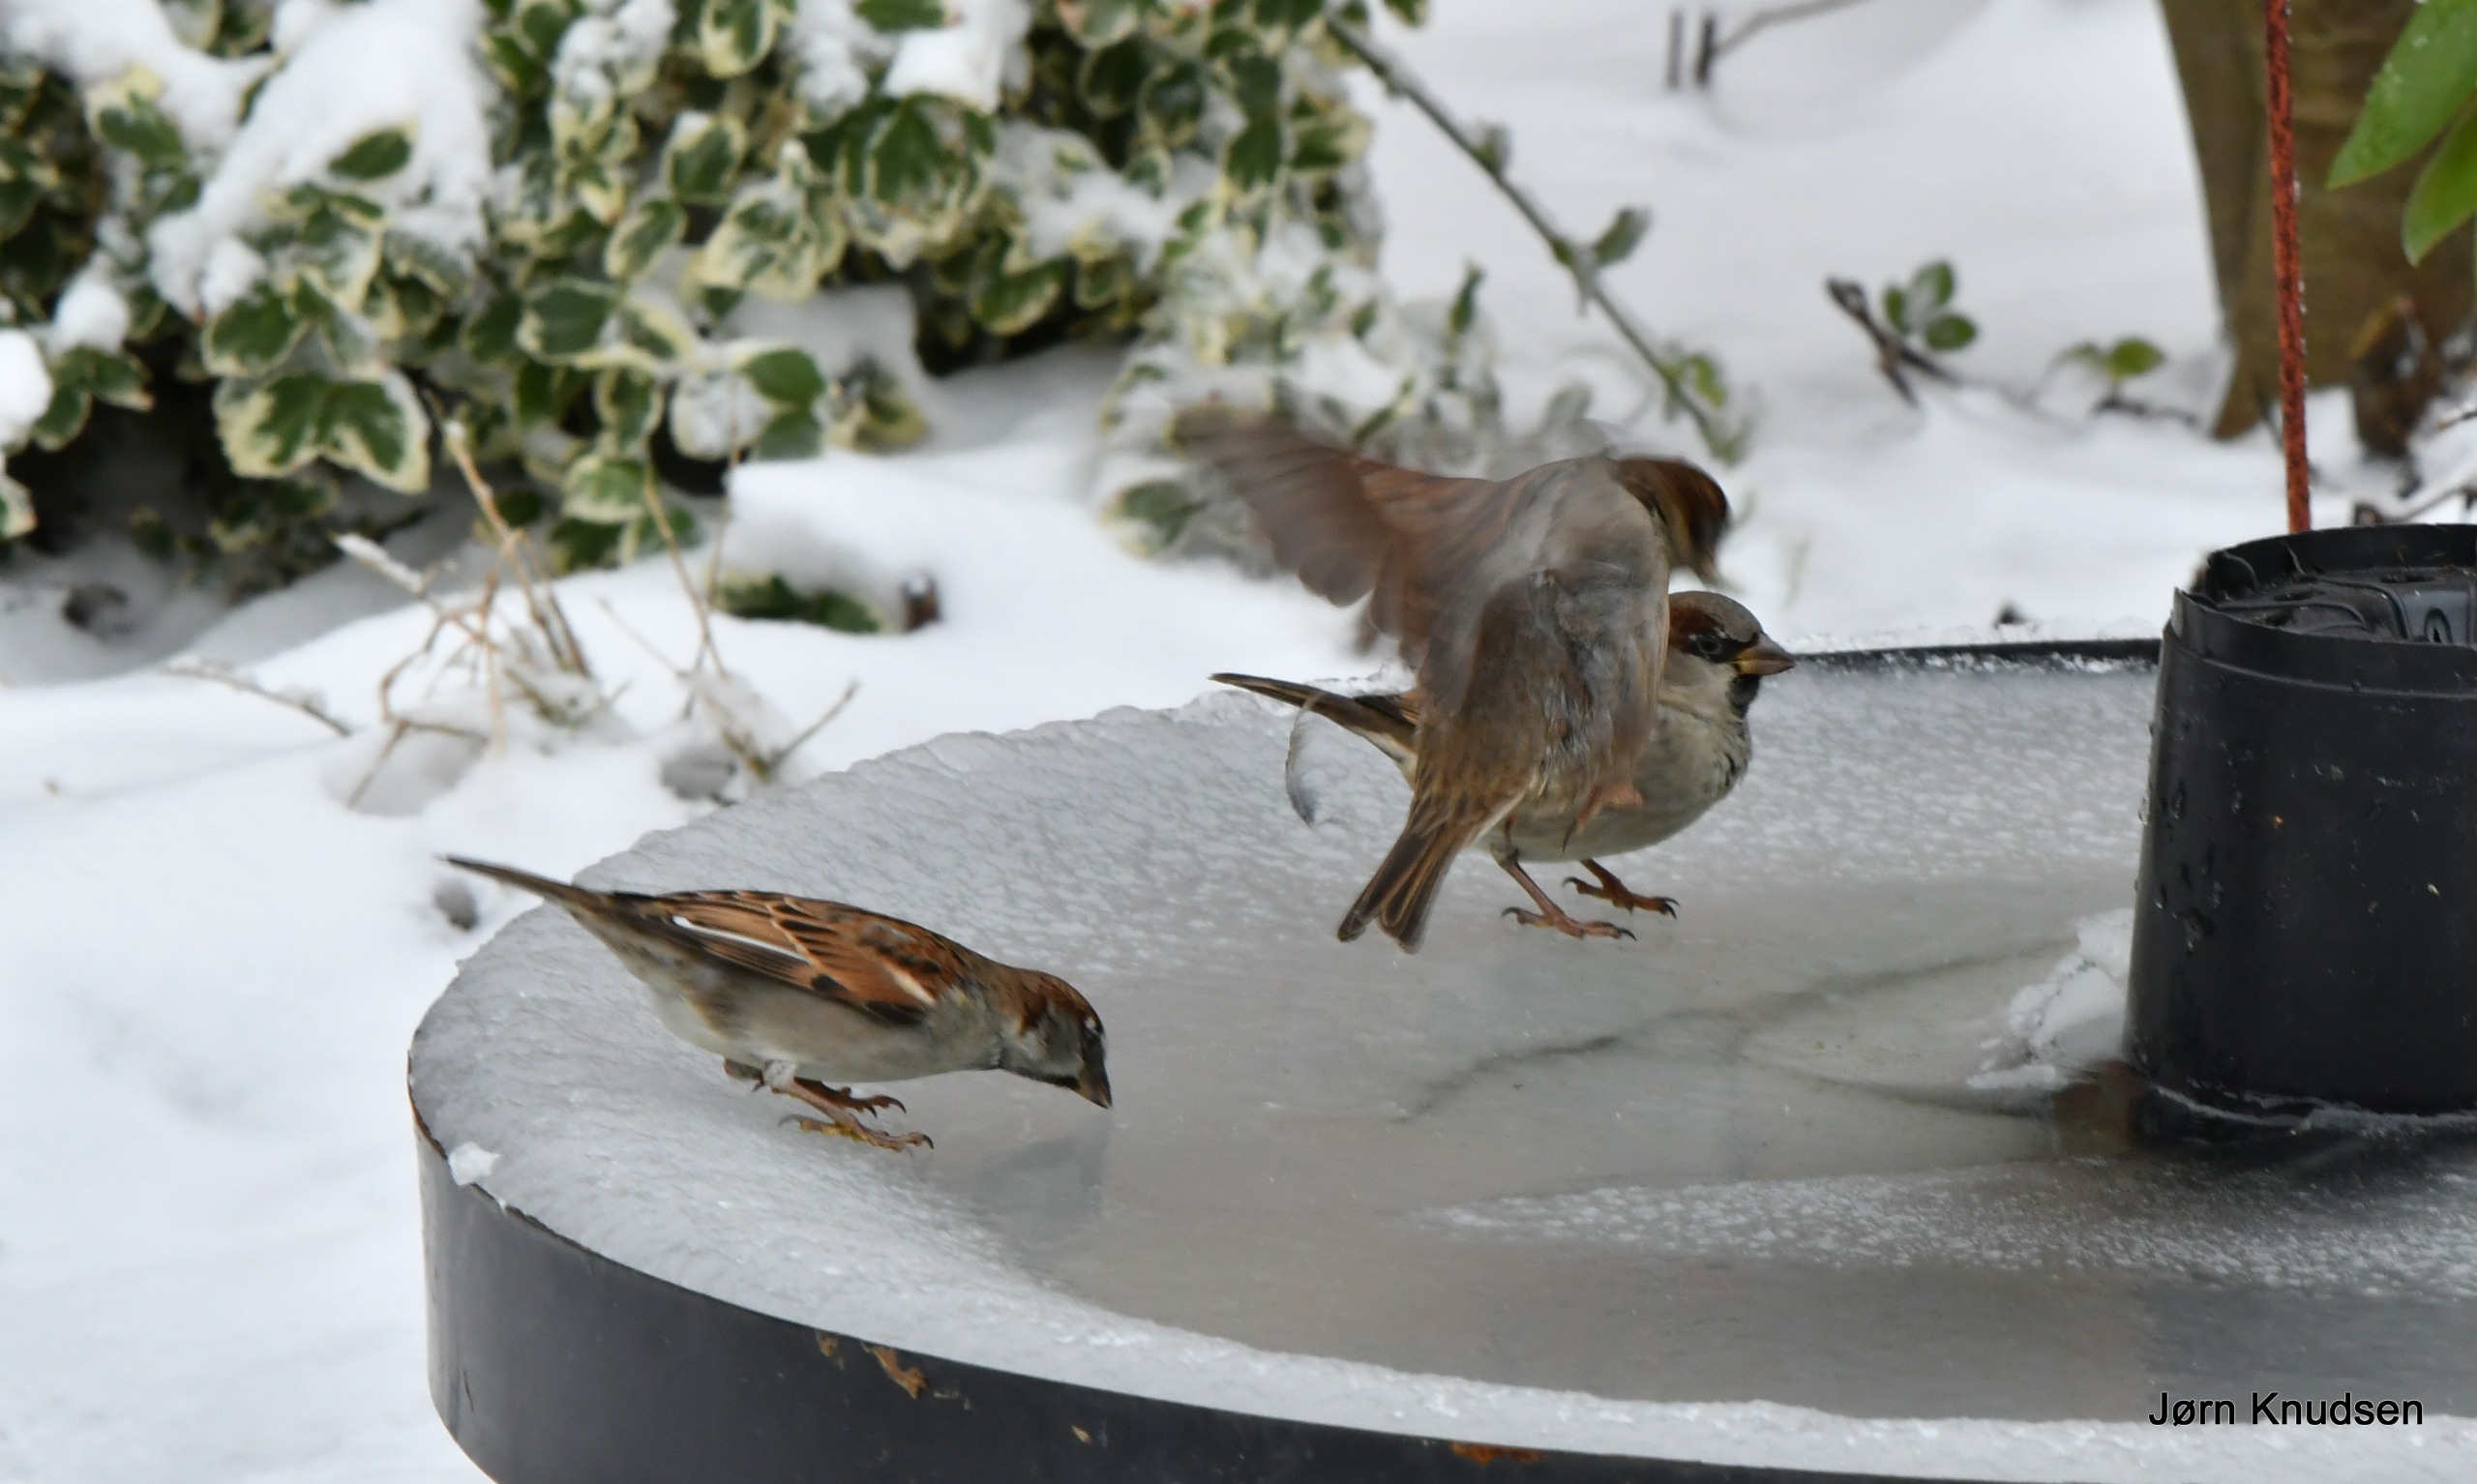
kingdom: Animalia
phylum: Chordata
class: Aves
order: Passeriformes
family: Passeridae
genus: Passer
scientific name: Passer domesticus
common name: Gråspurv
